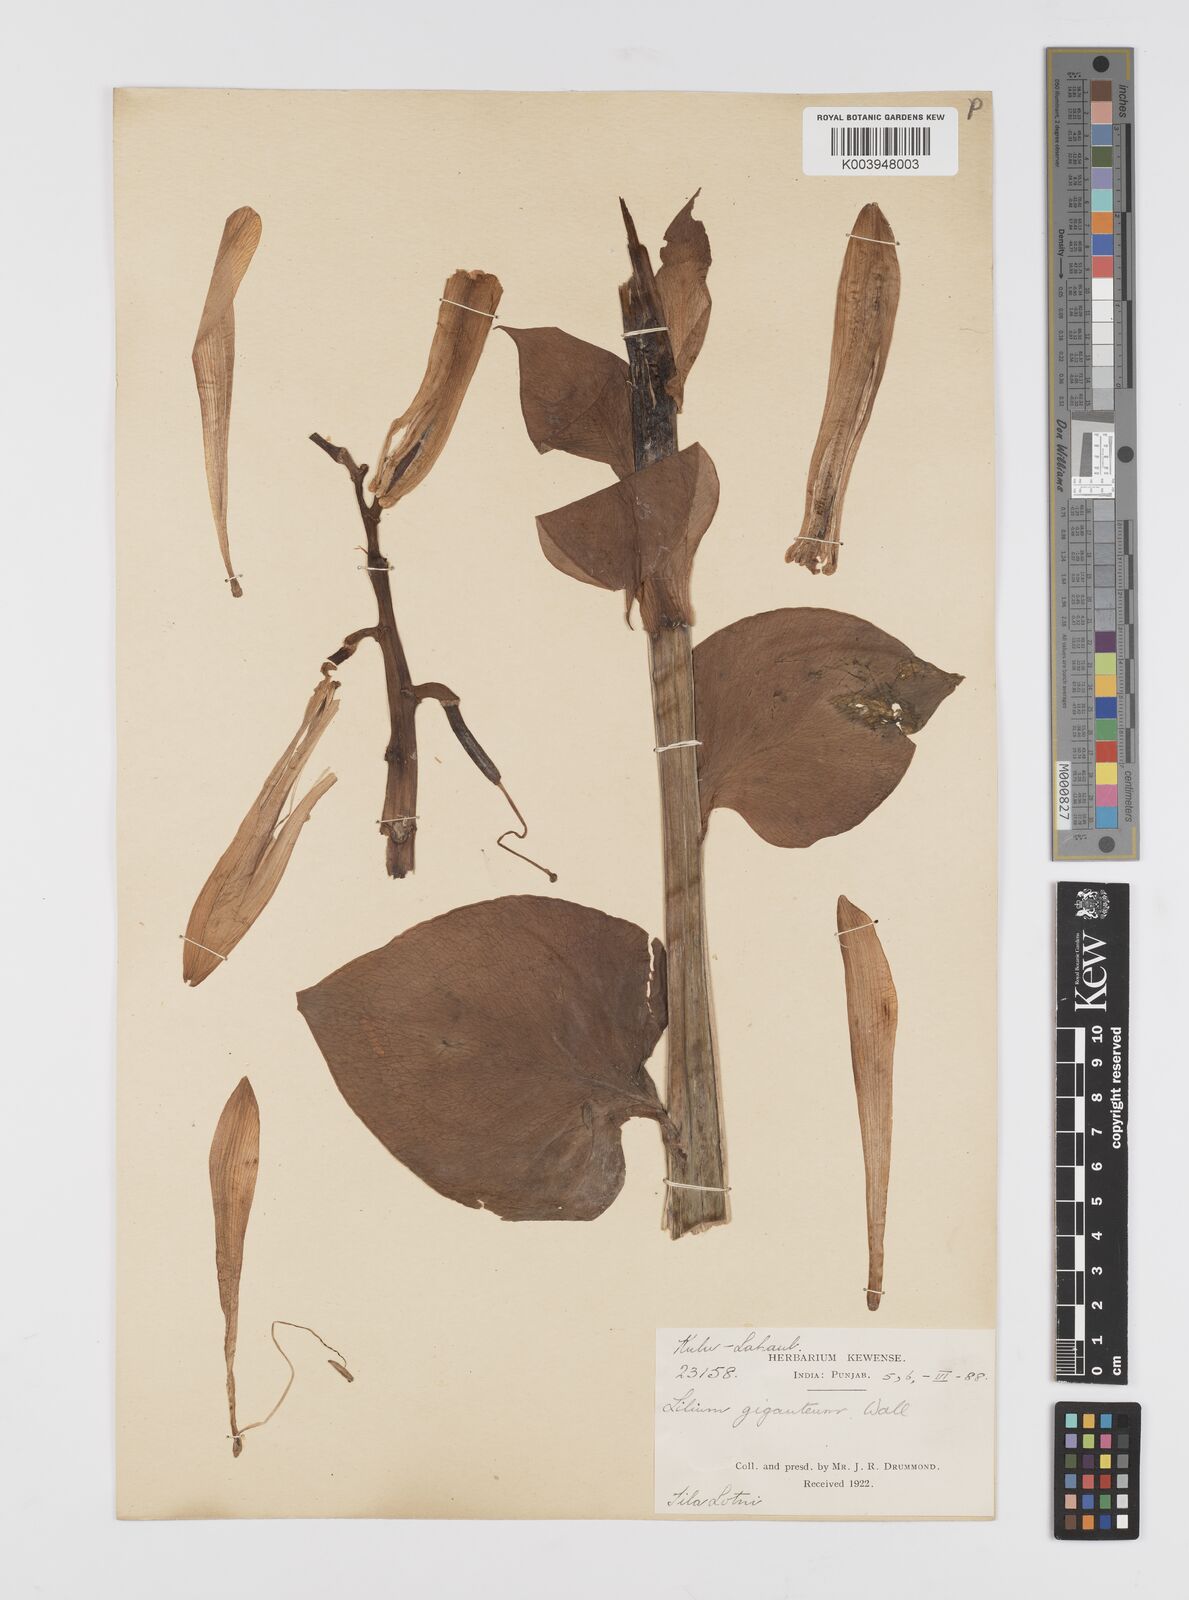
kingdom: Plantae
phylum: Tracheophyta
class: Liliopsida
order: Liliales
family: Liliaceae
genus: Cardiocrinum
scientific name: Cardiocrinum giganteum
